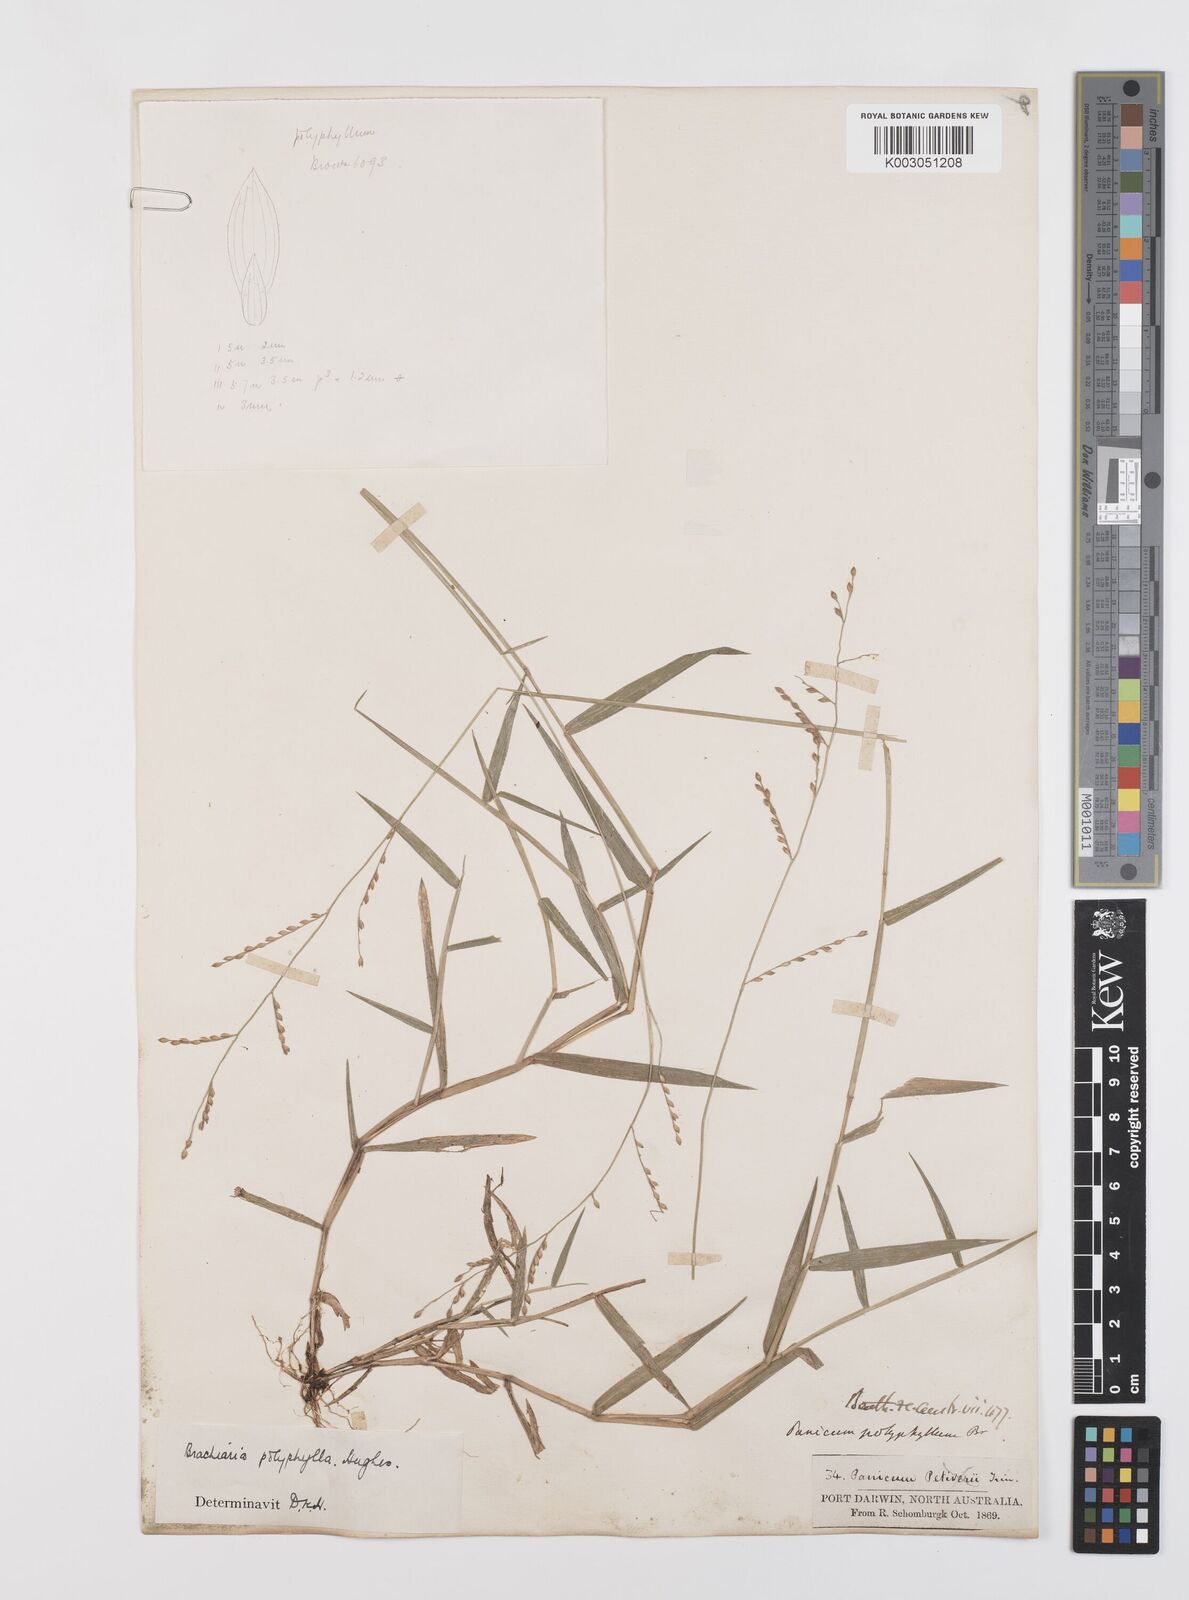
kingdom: Plantae
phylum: Tracheophyta
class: Liliopsida
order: Poales
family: Poaceae
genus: Urochloa
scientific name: Urochloa polyphylla
